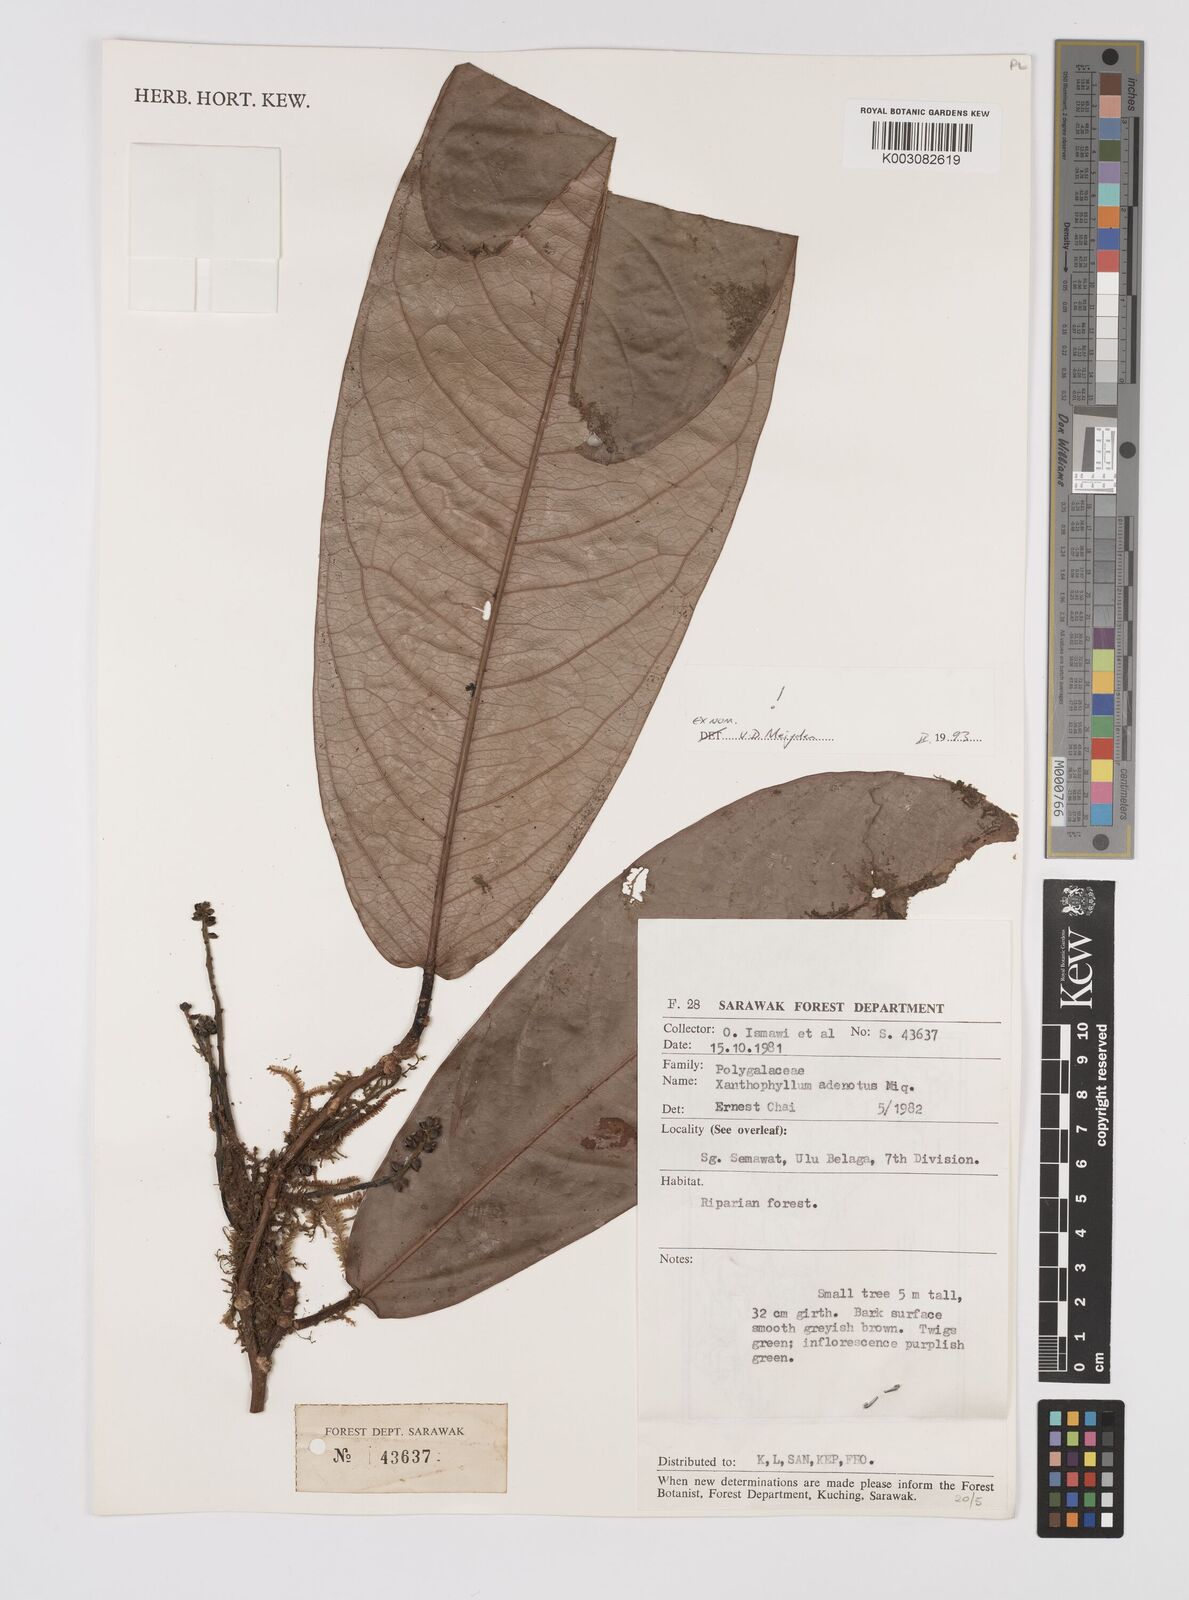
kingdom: Plantae
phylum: Tracheophyta
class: Magnoliopsida
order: Fabales
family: Polygalaceae
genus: Xanthophyllum
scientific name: Xanthophyllum adenotus
